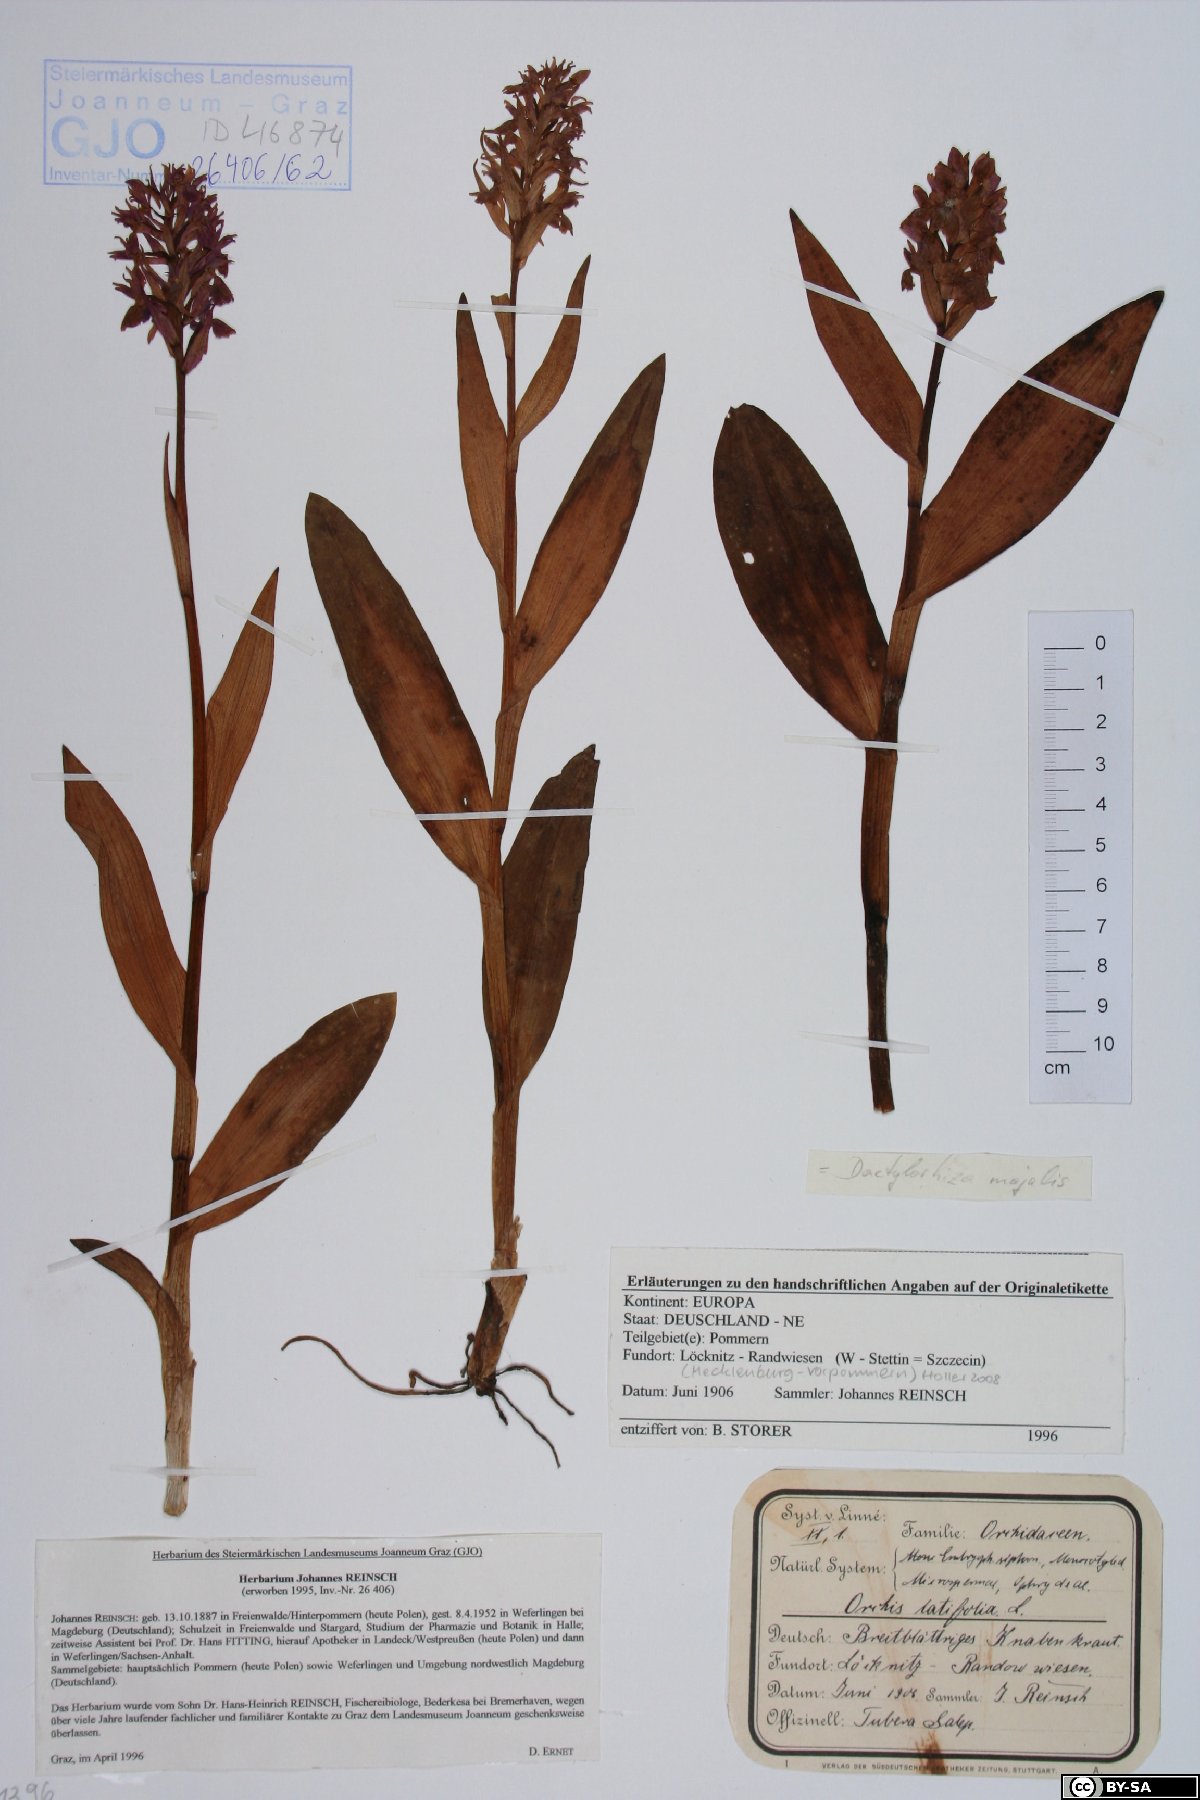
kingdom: Plantae
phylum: Tracheophyta
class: Liliopsida
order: Asparagales
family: Orchidaceae
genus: Dactylorhiza
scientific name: Dactylorhiza incarnata
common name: Early marsh-orchid
